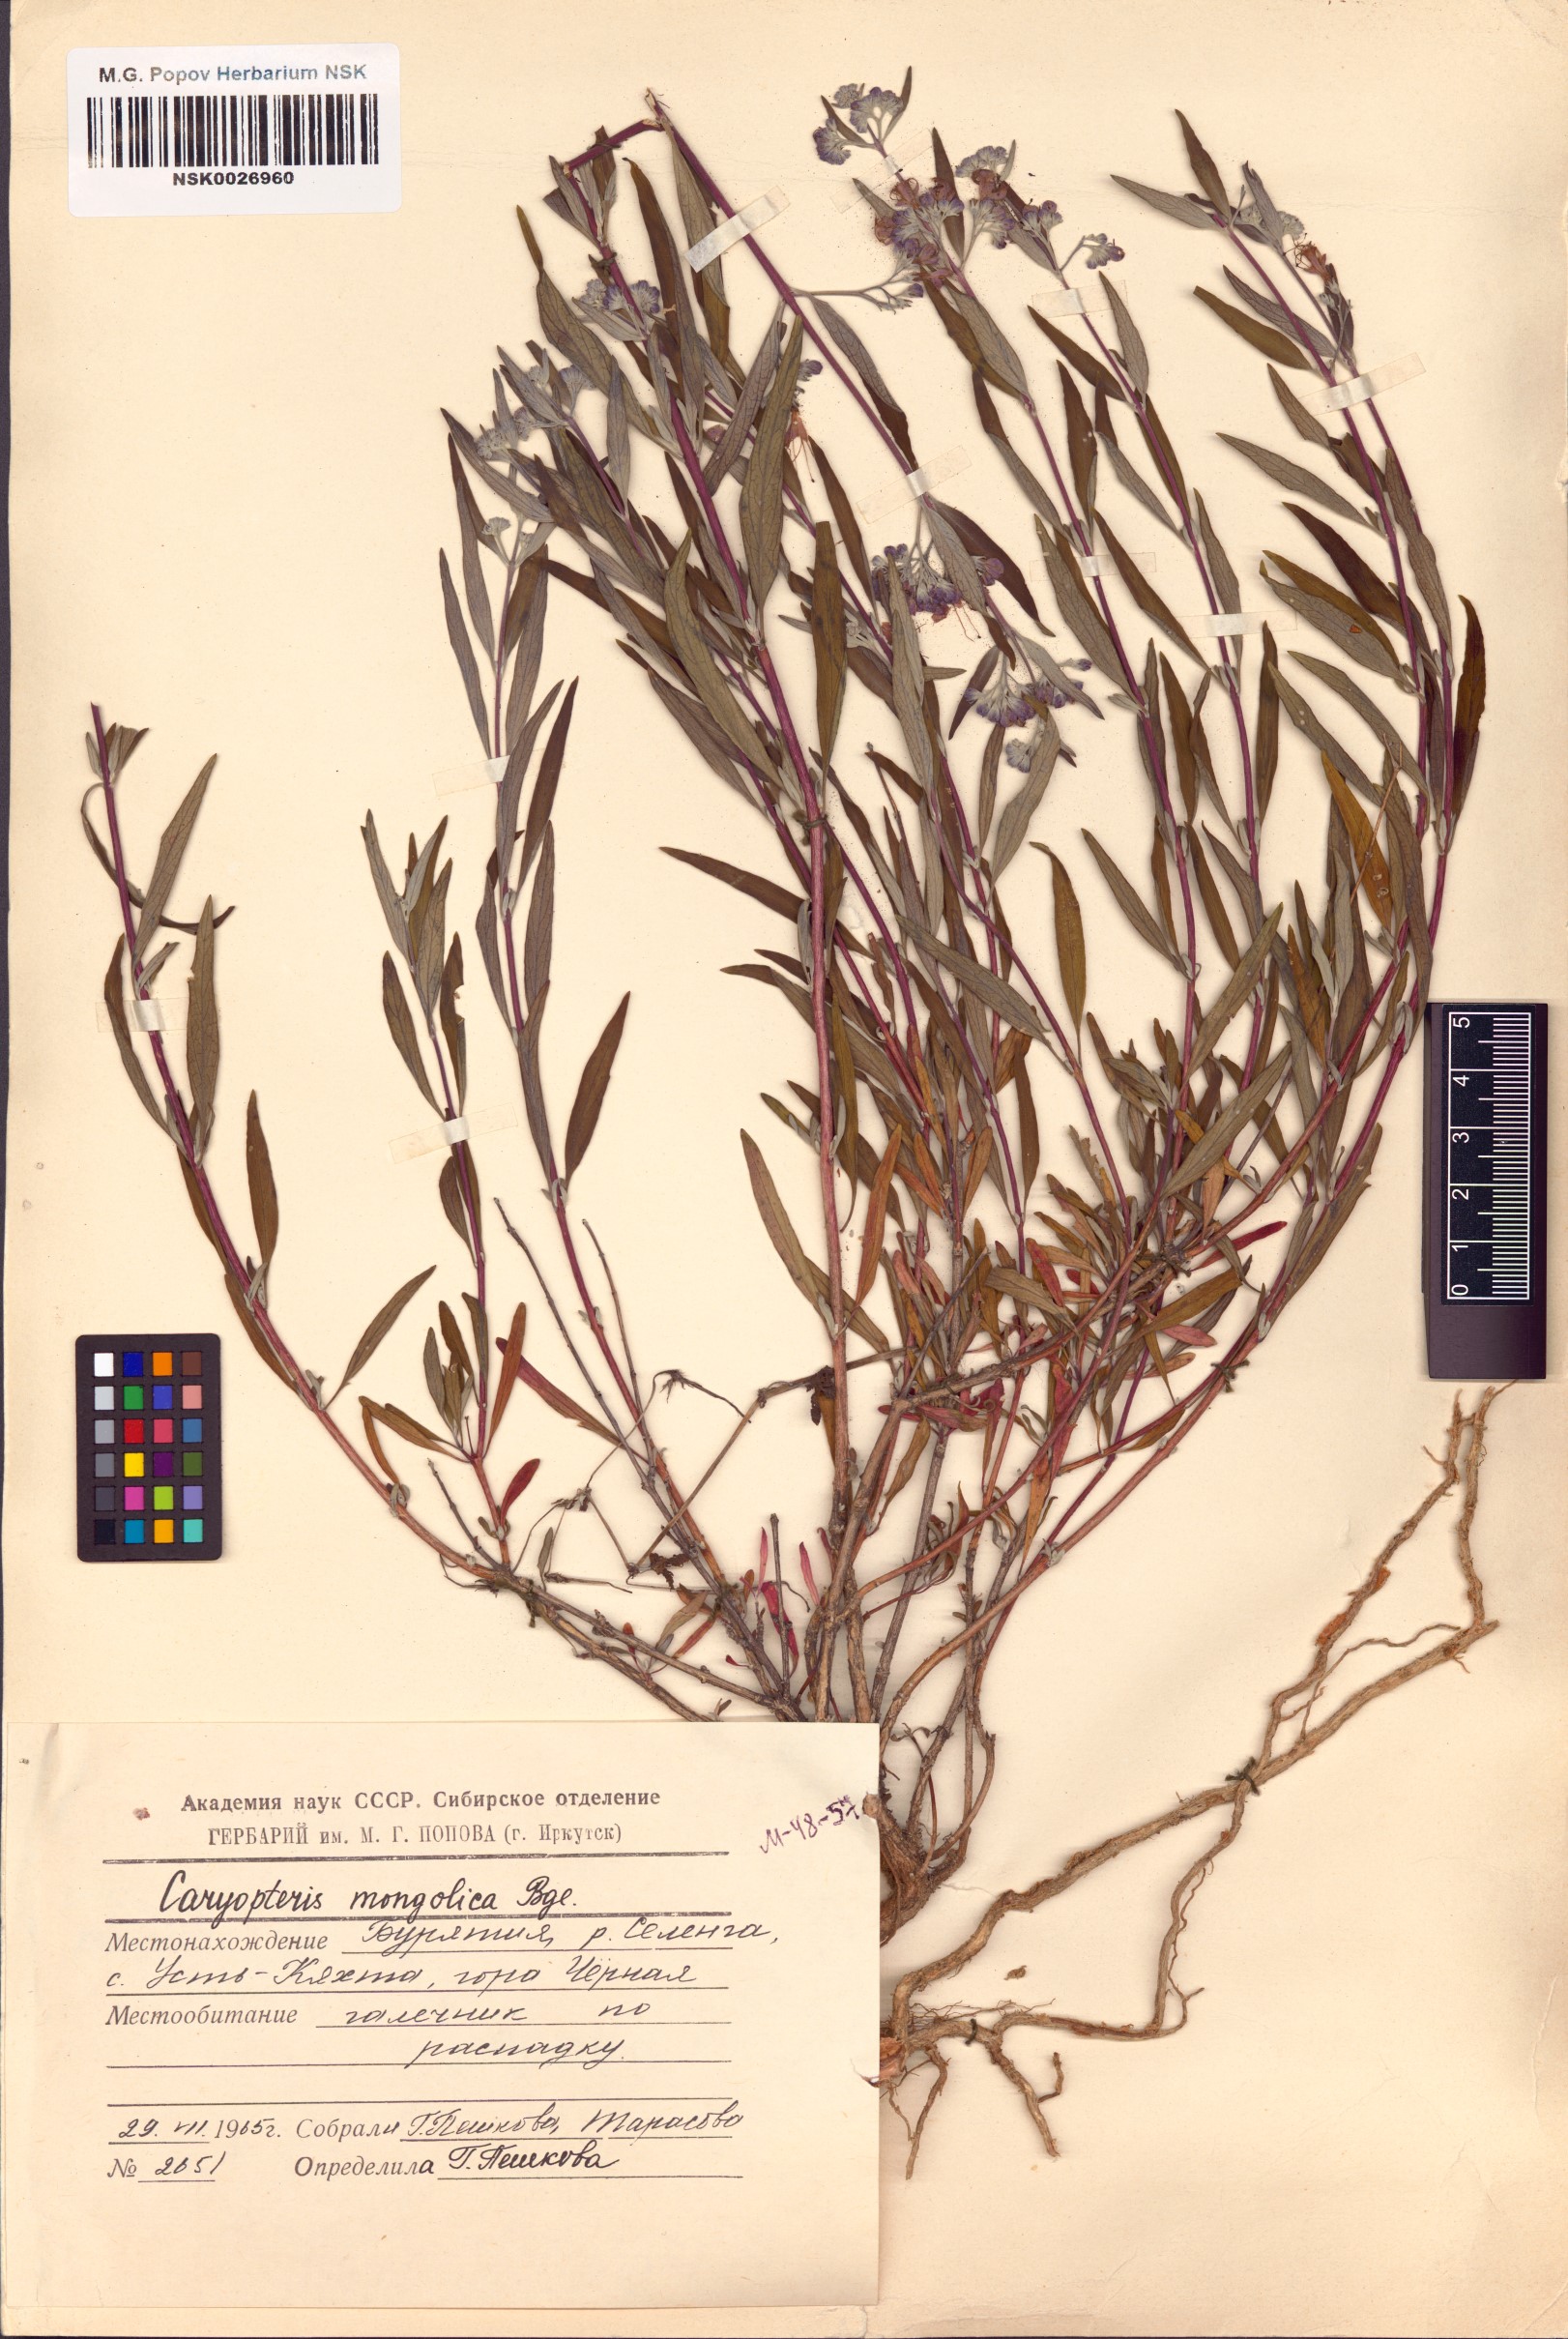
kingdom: Plantae
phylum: Tracheophyta
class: Magnoliopsida
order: Lamiales
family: Lamiaceae
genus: Caryopteris
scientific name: Caryopteris mongholica
